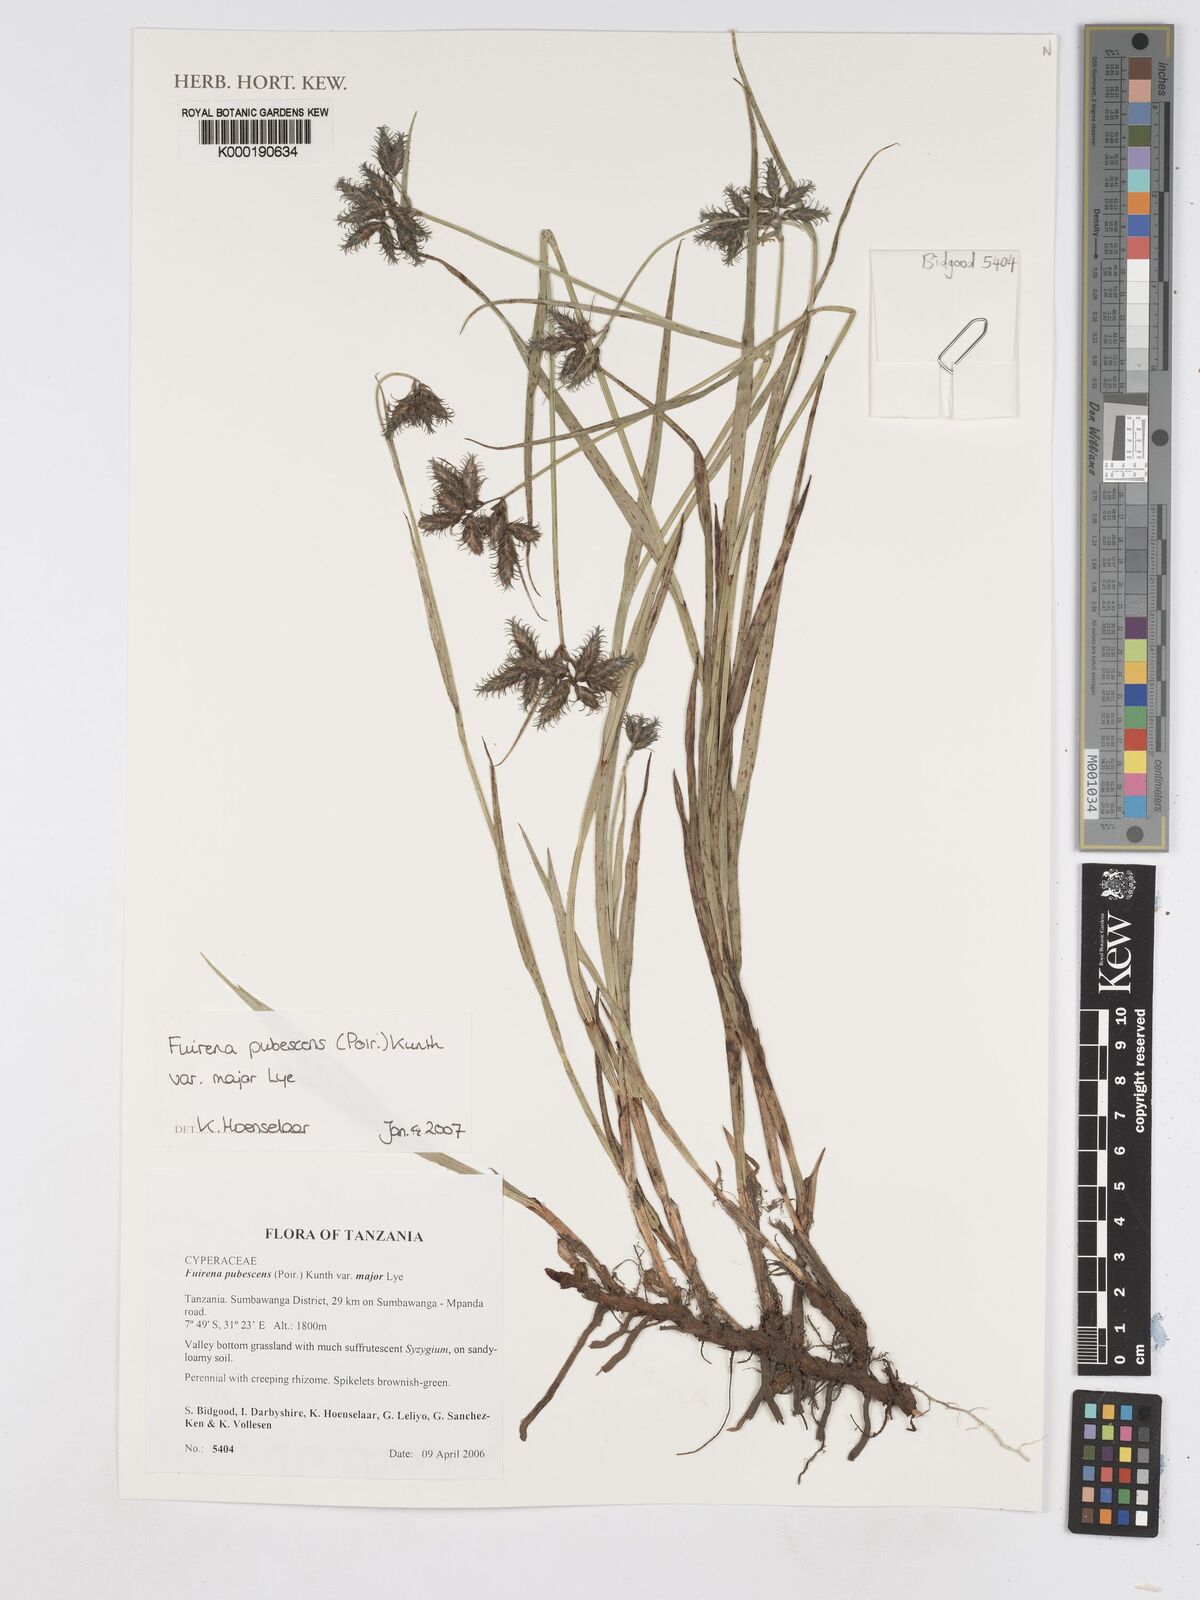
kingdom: Plantae
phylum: Tracheophyta
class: Liliopsida
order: Poales
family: Cyperaceae
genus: Fuirena
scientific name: Fuirena pachyrrhiza
